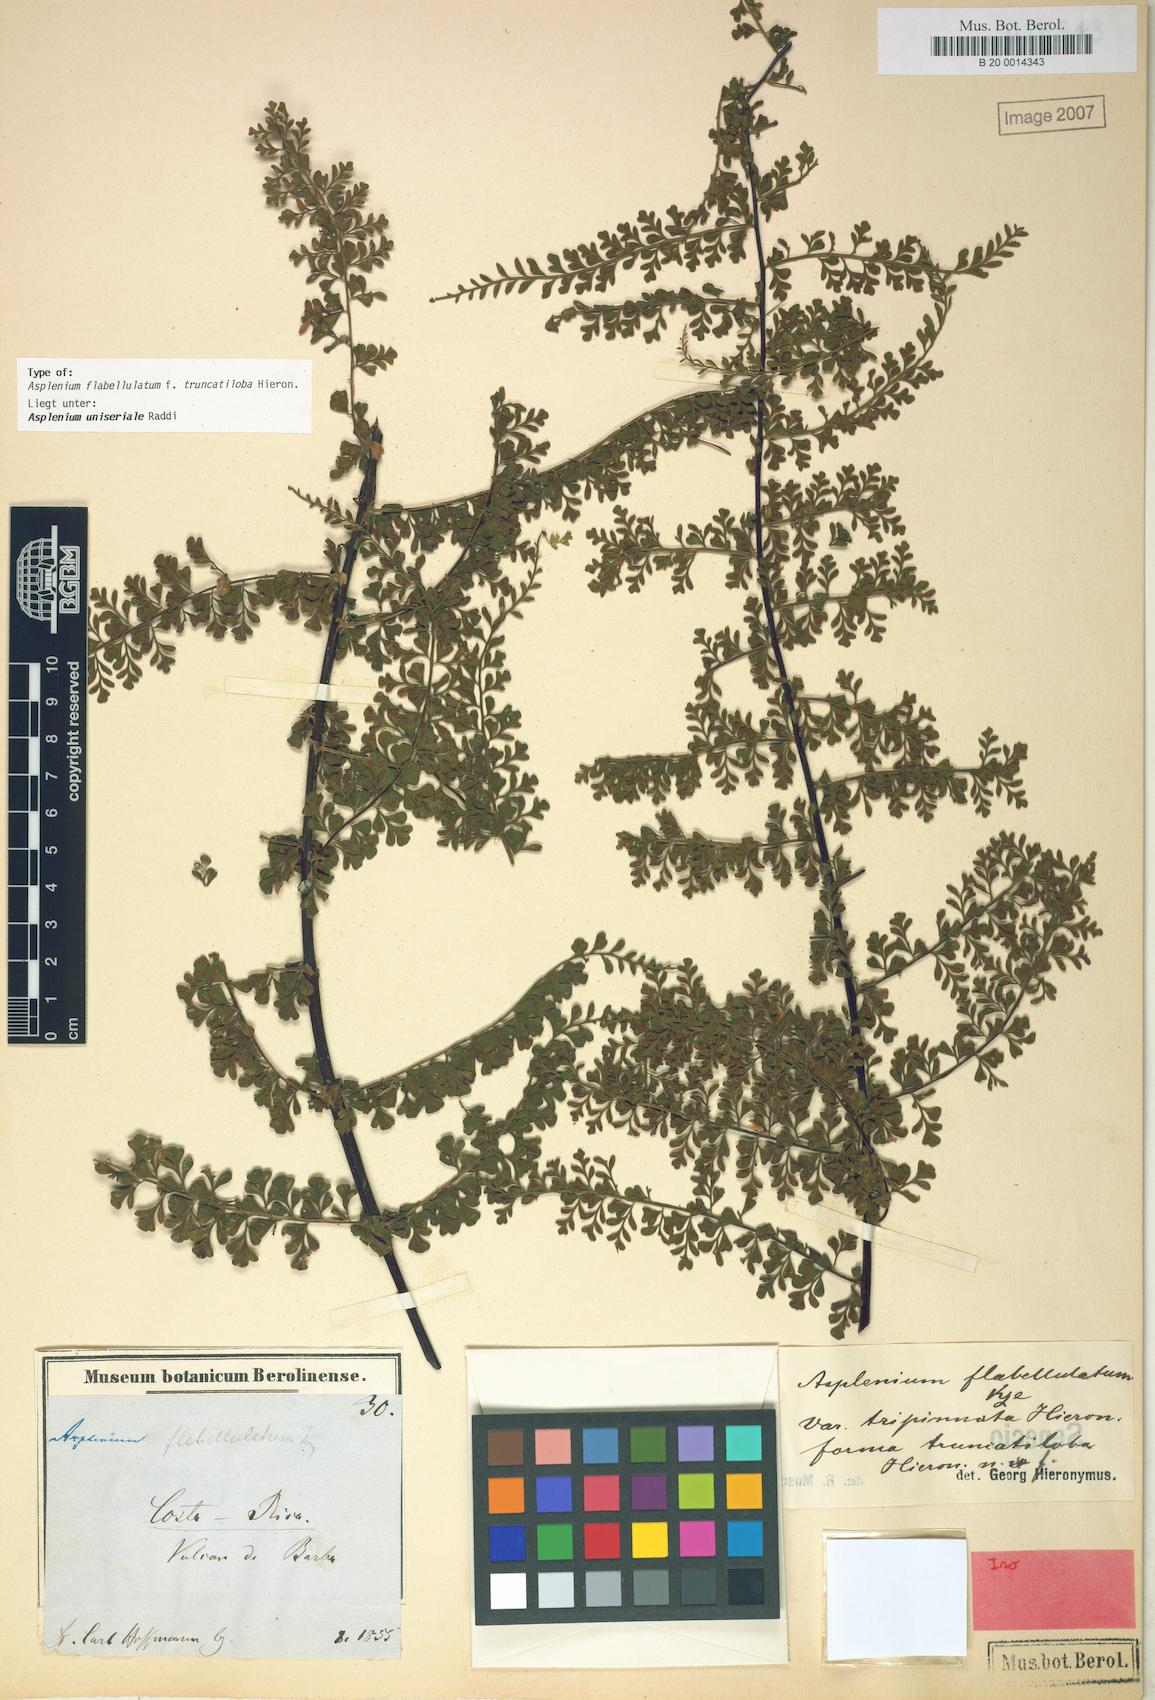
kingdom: Plantae
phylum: Tracheophyta
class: Polypodiopsida
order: Polypodiales
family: Aspleniaceae
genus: Asplenium
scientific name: Asplenium radicans
